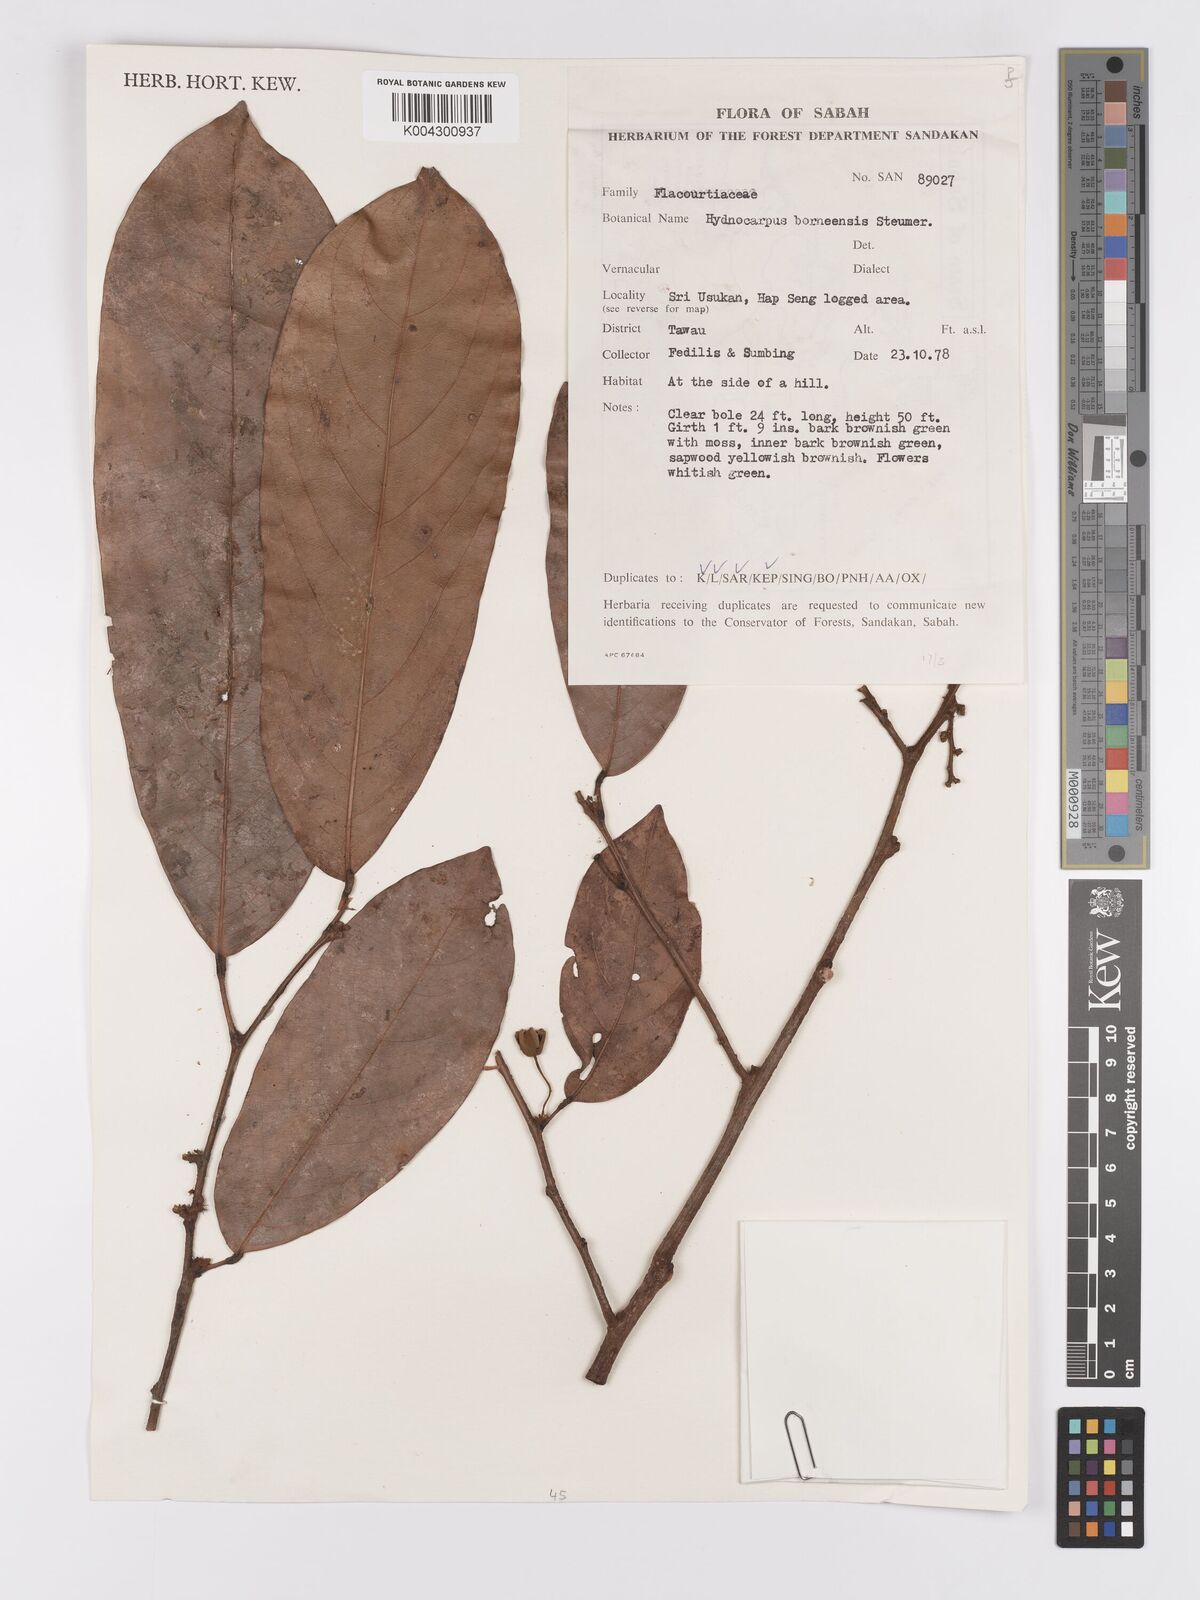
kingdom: Plantae
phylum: Tracheophyta
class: Magnoliopsida
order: Malpighiales
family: Achariaceae
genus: Hydnocarpus
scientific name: Hydnocarpus borneensis
